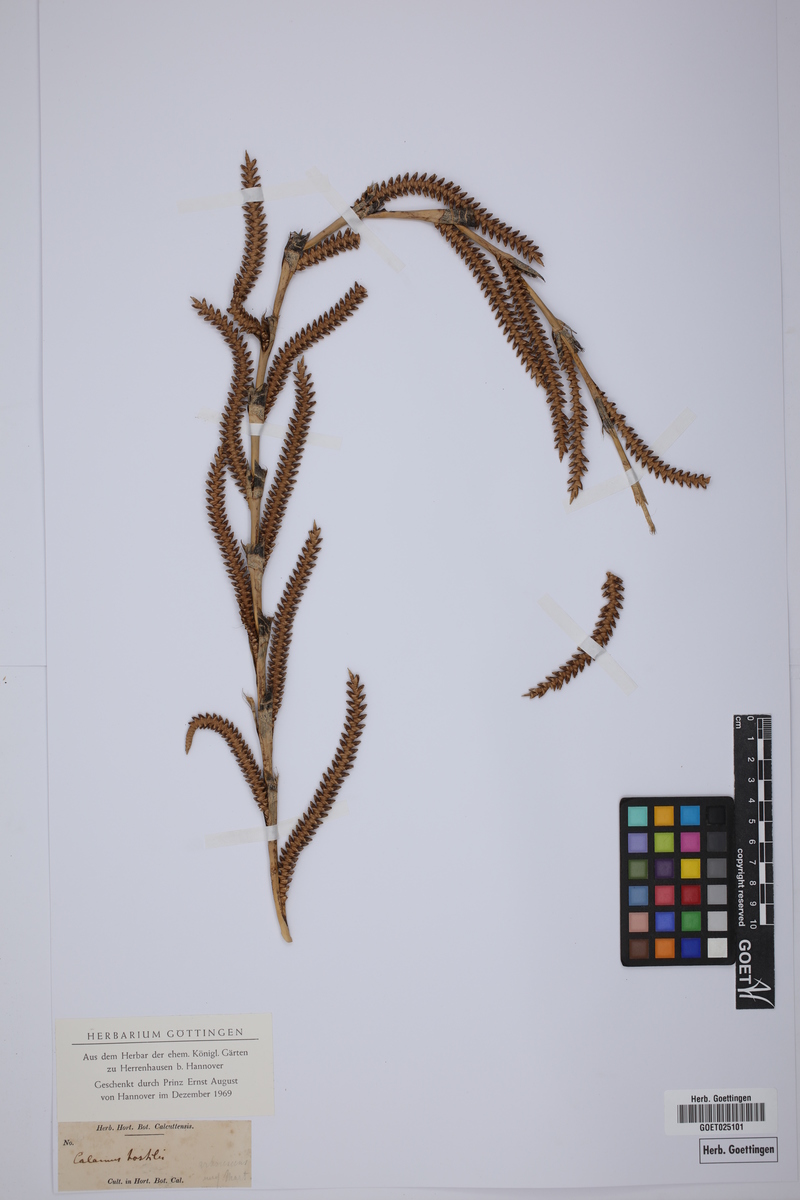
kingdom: Plantae
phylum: Tracheophyta
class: Liliopsida
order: Arecales
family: Arecaceae
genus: Calamus
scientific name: Calamus arborescens
